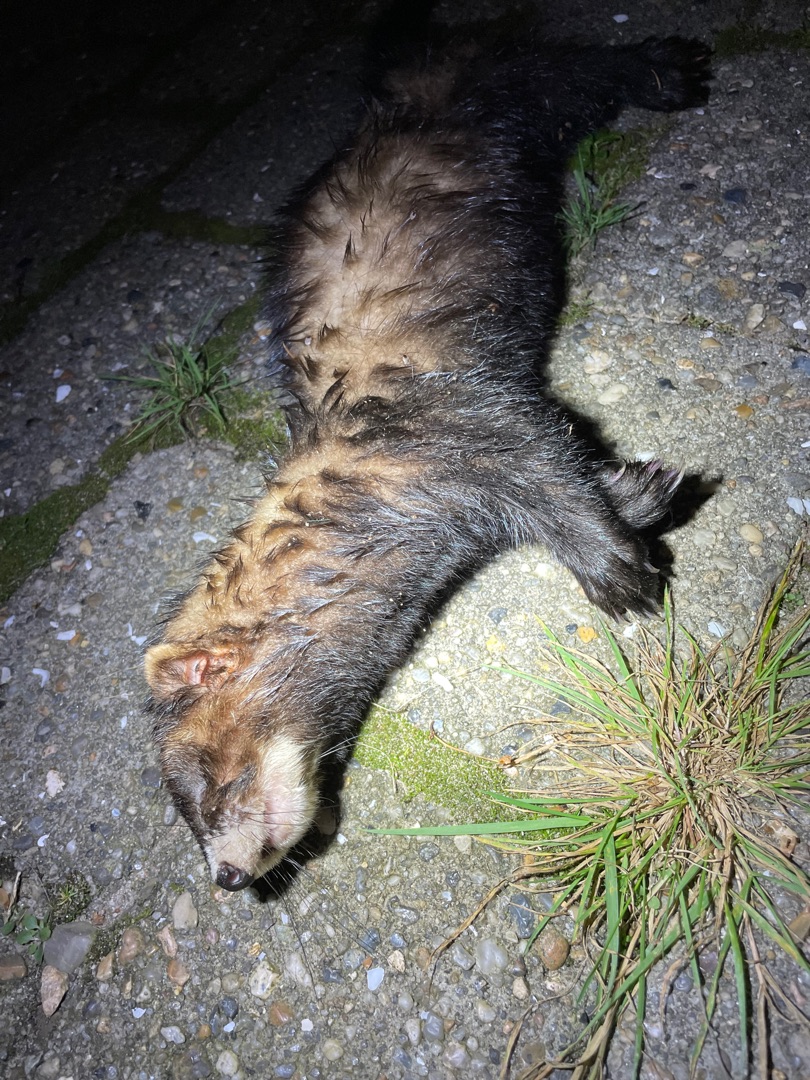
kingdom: Animalia
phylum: Chordata
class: Mammalia
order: Carnivora
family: Mustelidae
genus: Mustela
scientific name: Mustela putorius
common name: Ilder
